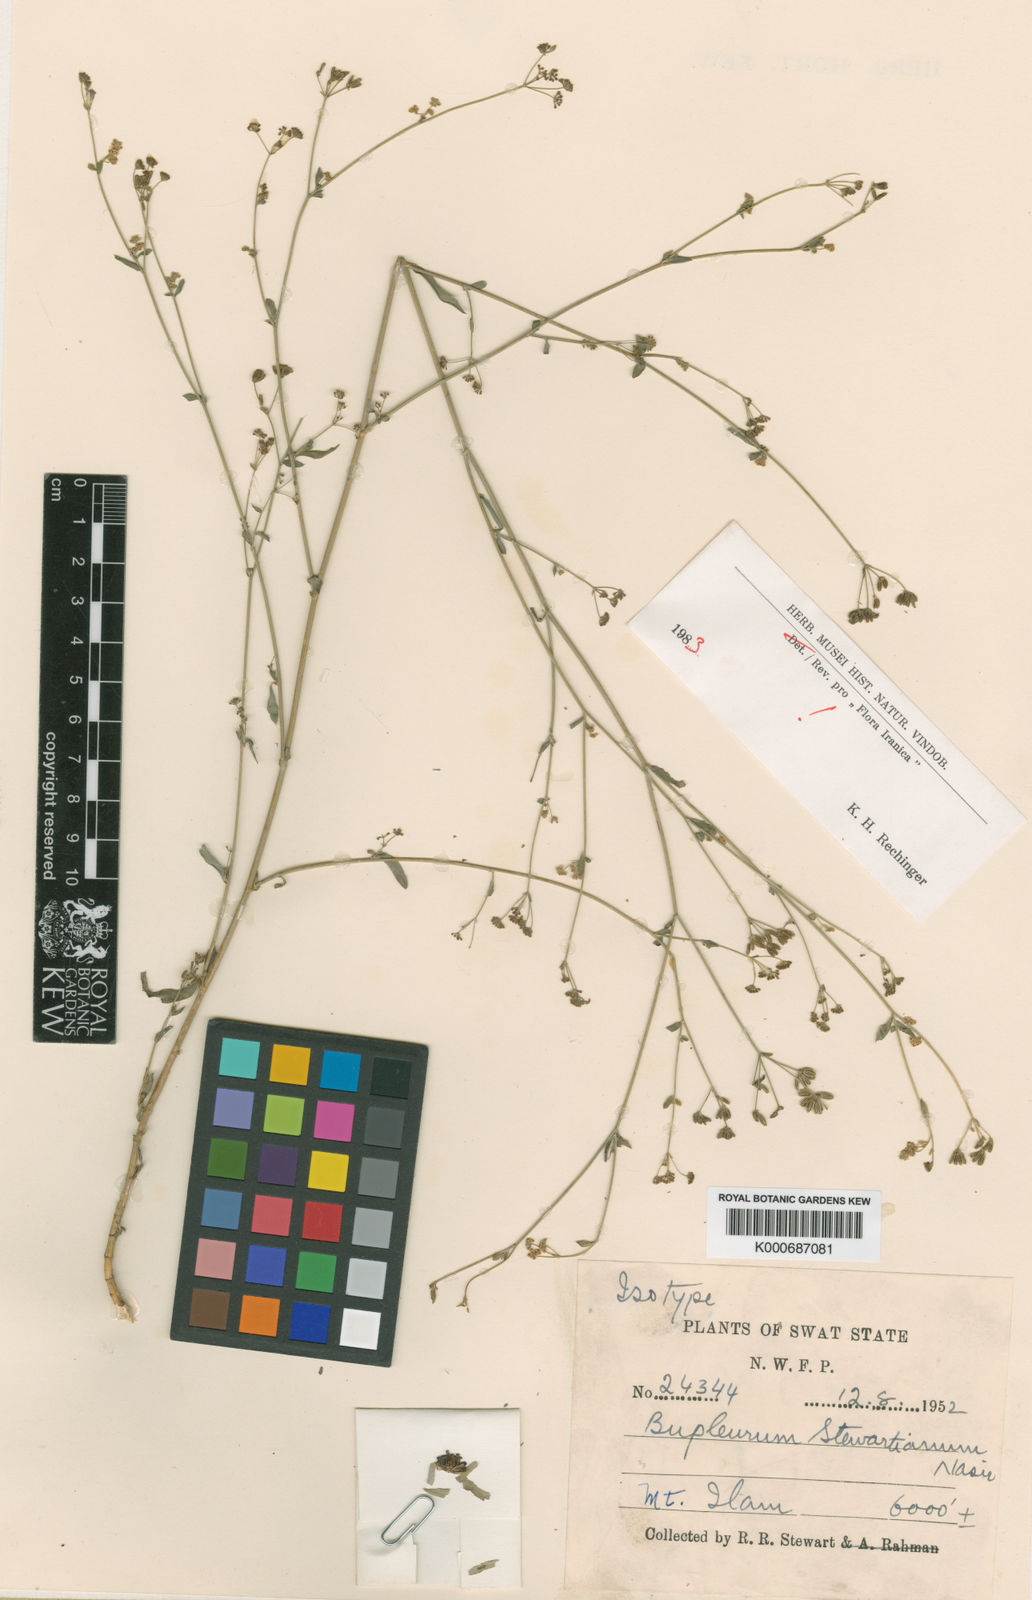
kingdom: Plantae
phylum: Tracheophyta
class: Magnoliopsida
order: Apiales
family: Apiaceae
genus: Bupleurum
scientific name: Bupleurum stewartianum
